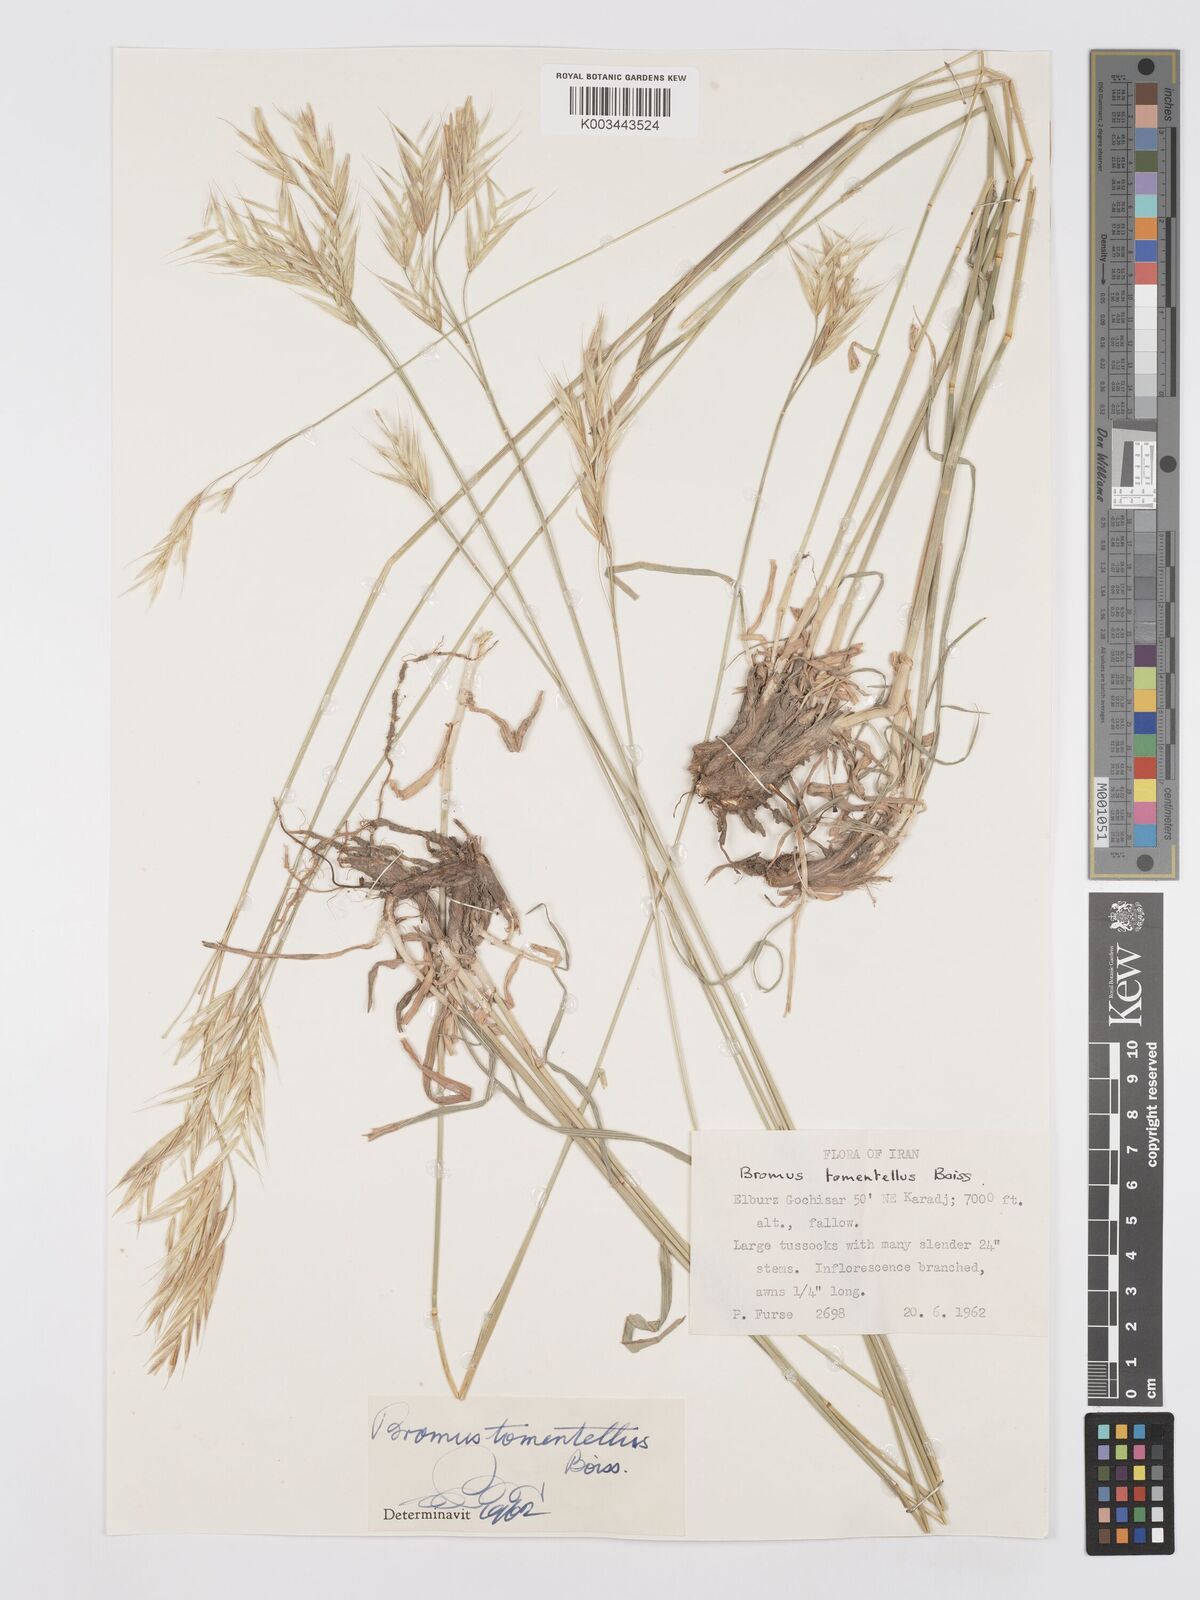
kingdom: Plantae
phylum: Tracheophyta
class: Liliopsida
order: Poales
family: Poaceae
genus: Bromus
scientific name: Bromus tomentellus
